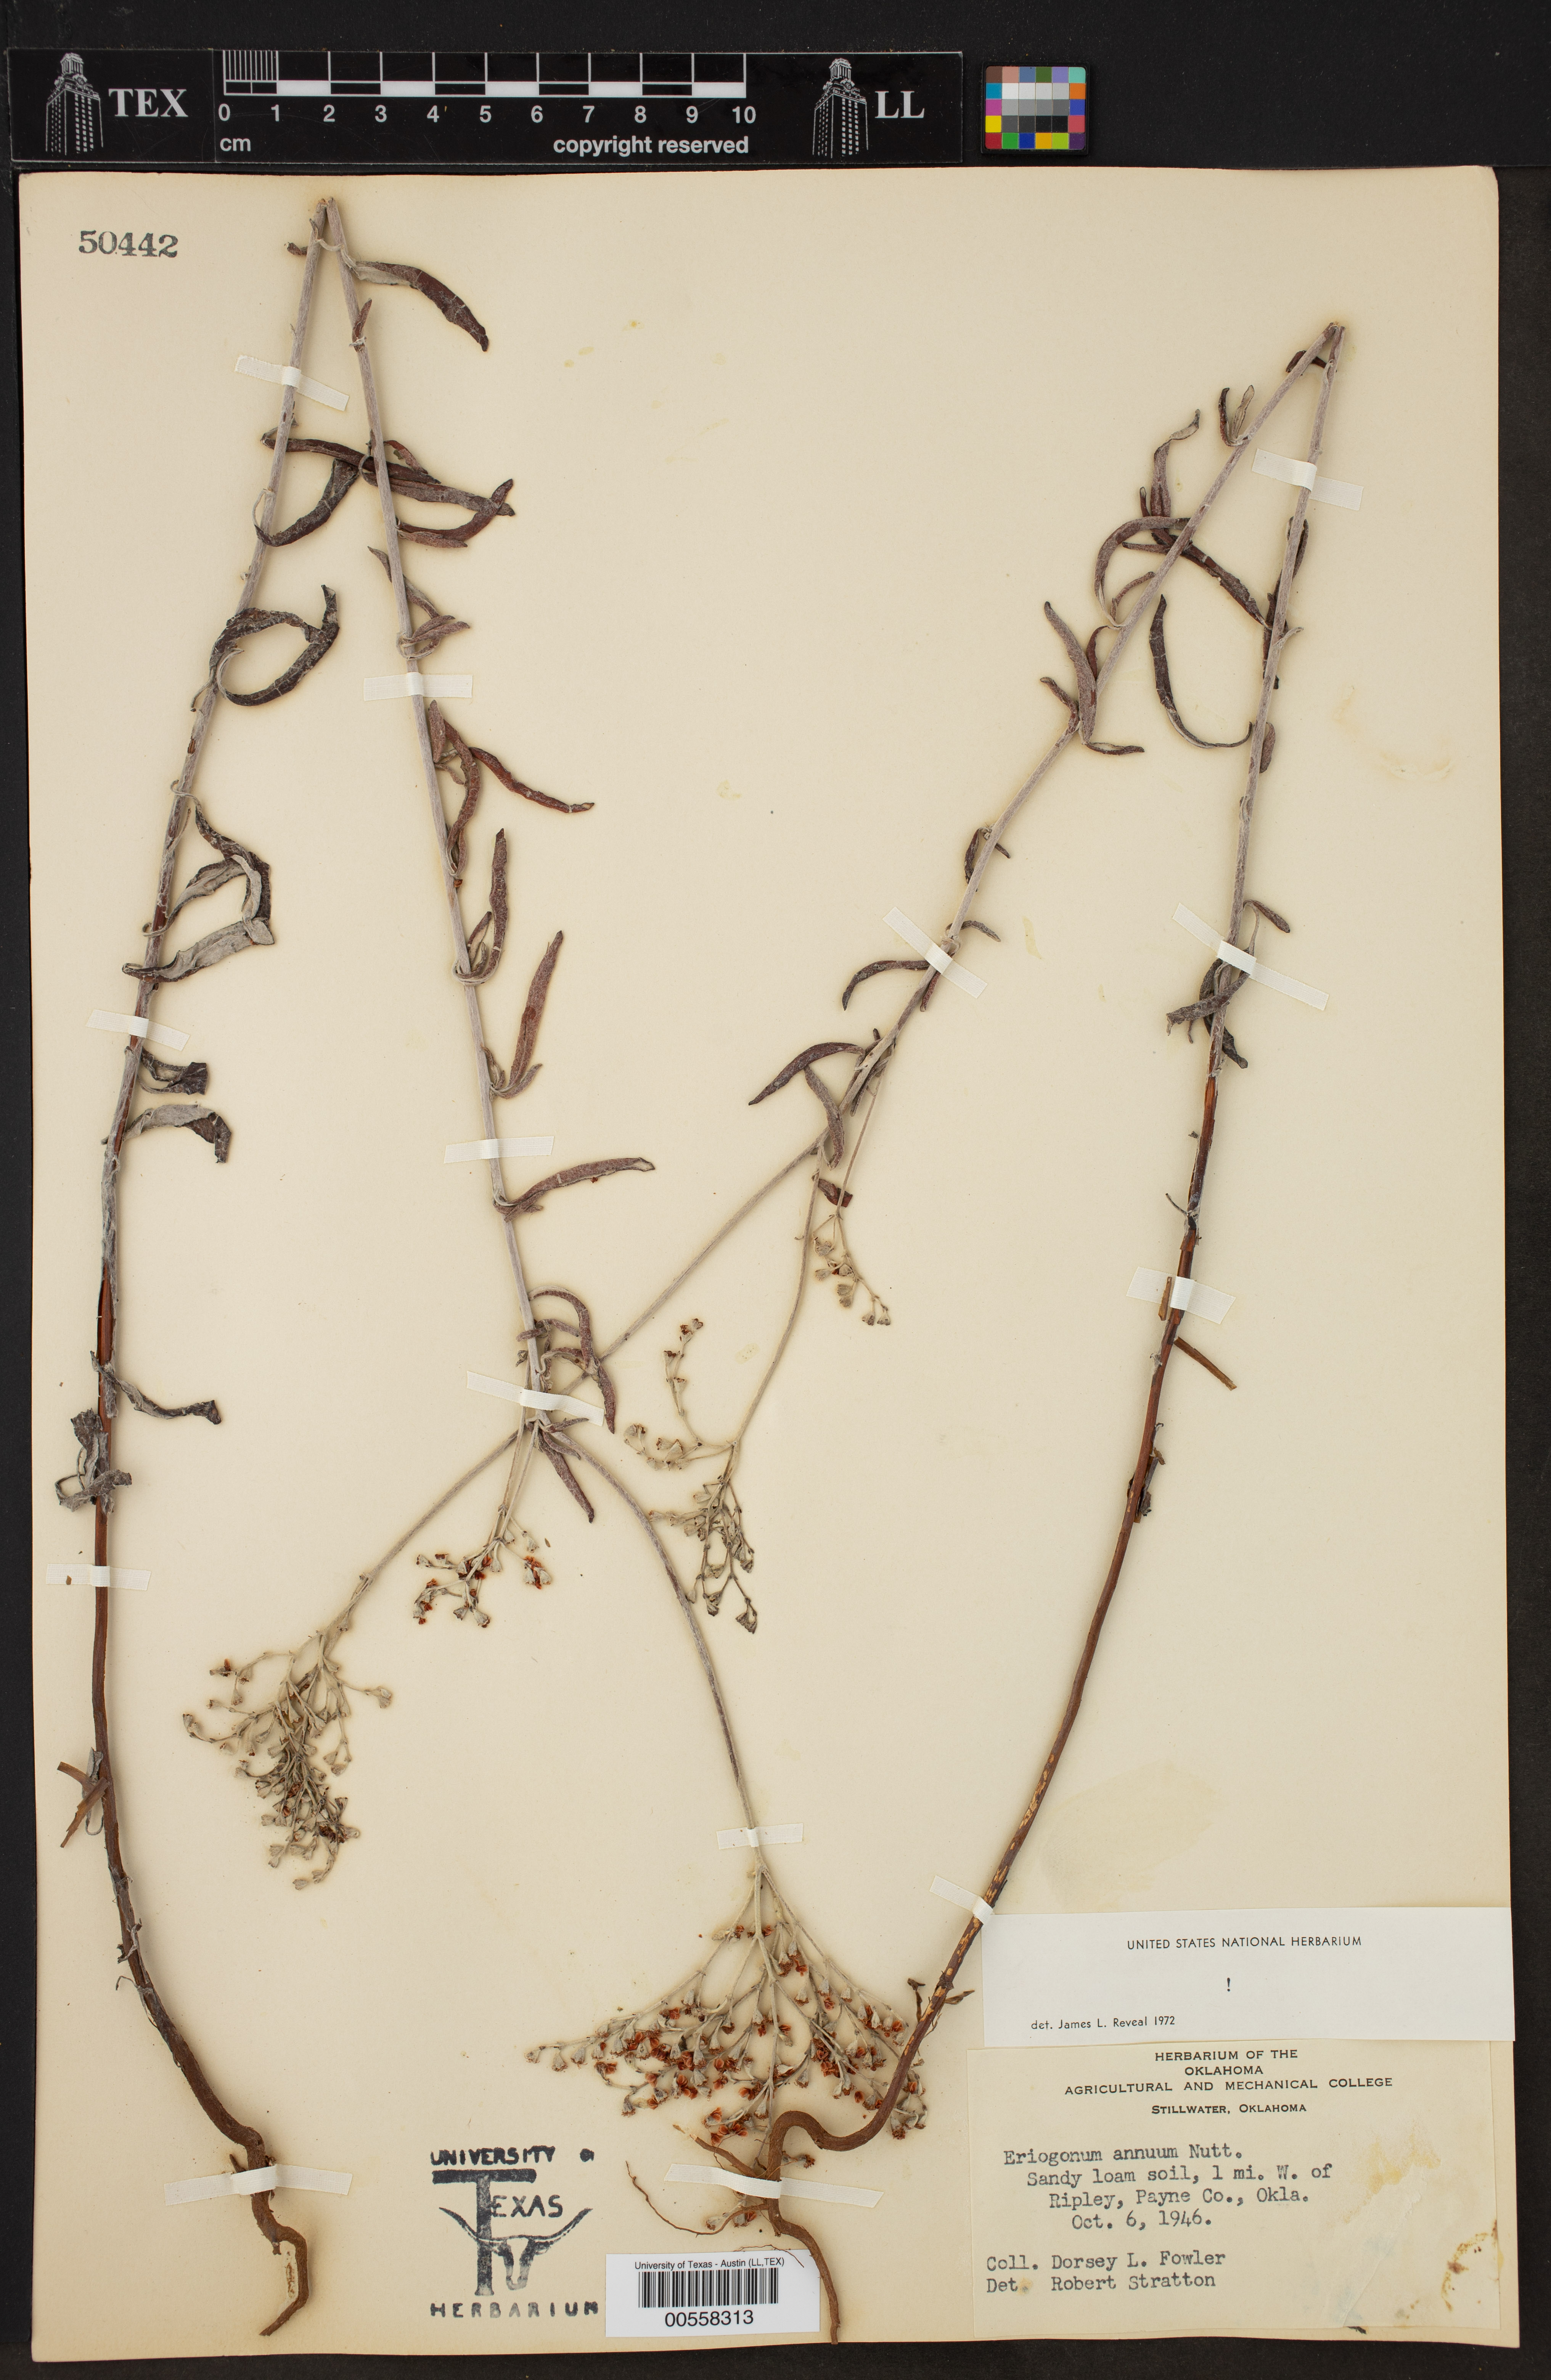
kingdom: Plantae
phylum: Tracheophyta
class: Magnoliopsida
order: Caryophyllales
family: Polygonaceae
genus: Eriogonum
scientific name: Eriogonum annuum
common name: Annual wild buckwheat
